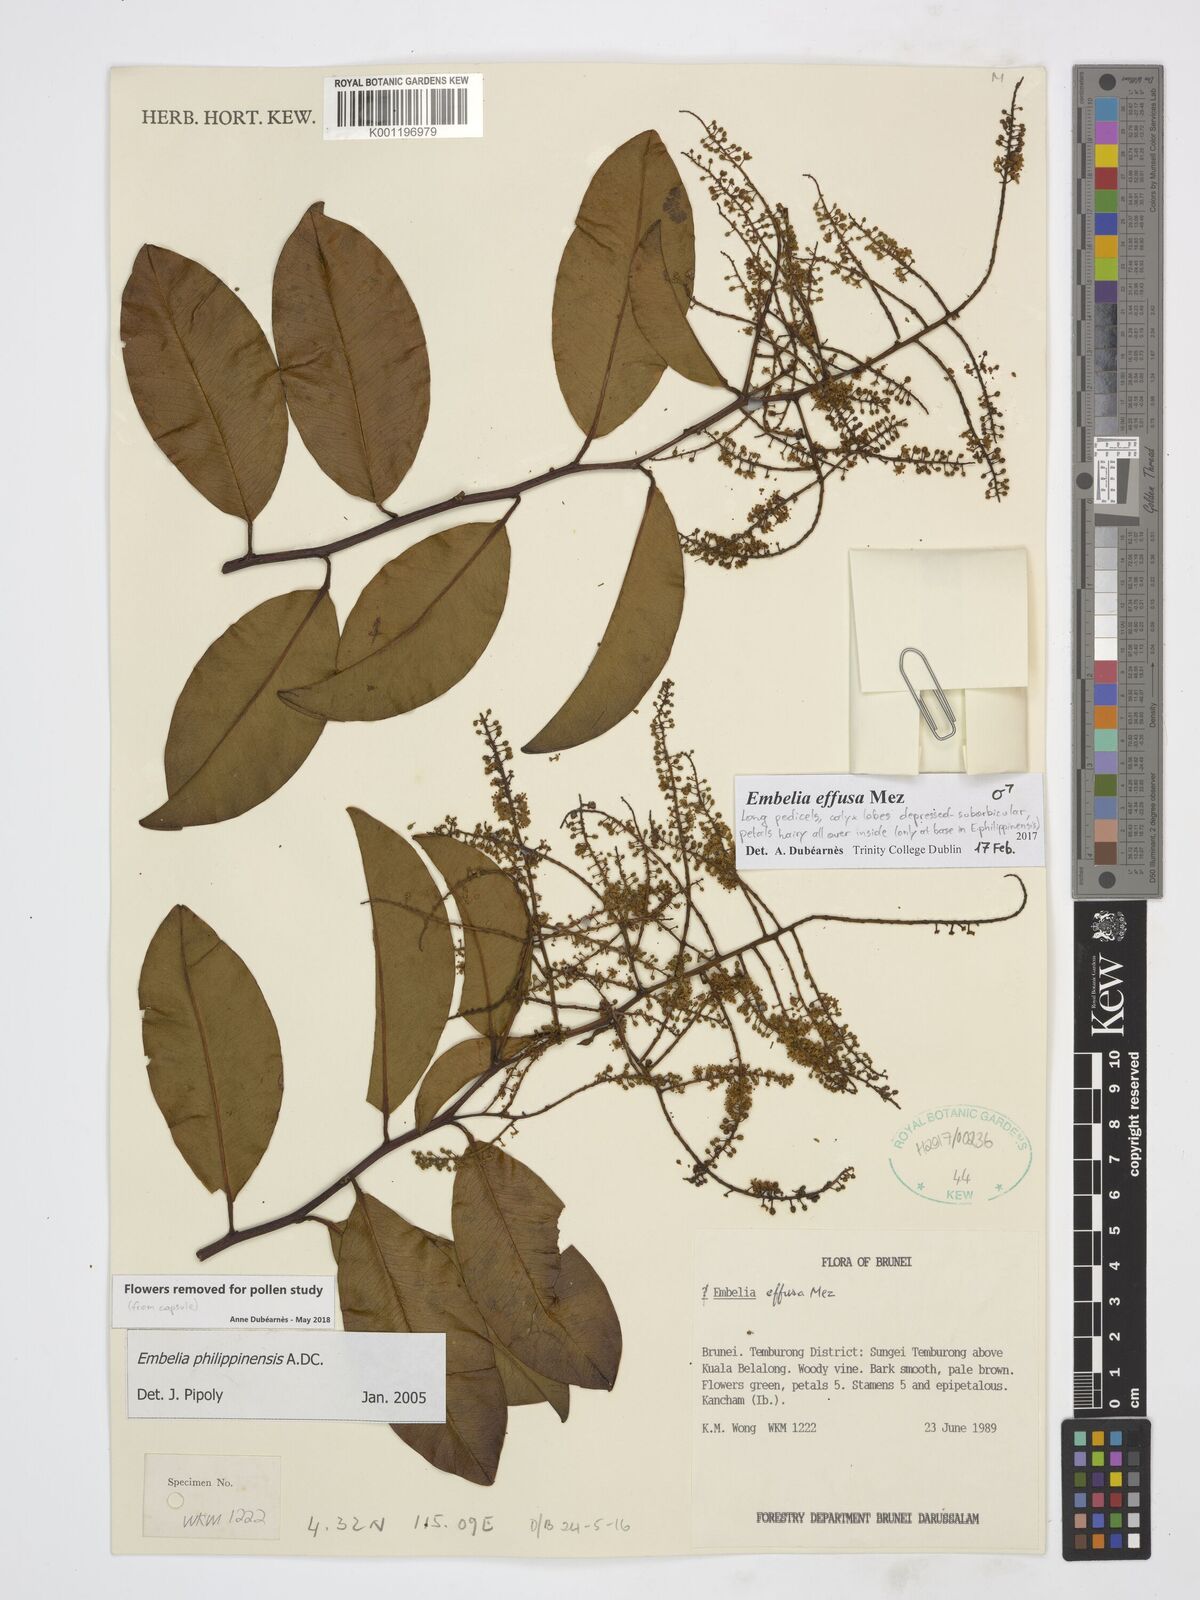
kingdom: Plantae
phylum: Tracheophyta
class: Magnoliopsida
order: Ericales
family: Primulaceae
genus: Embelia
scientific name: Embelia effusa
